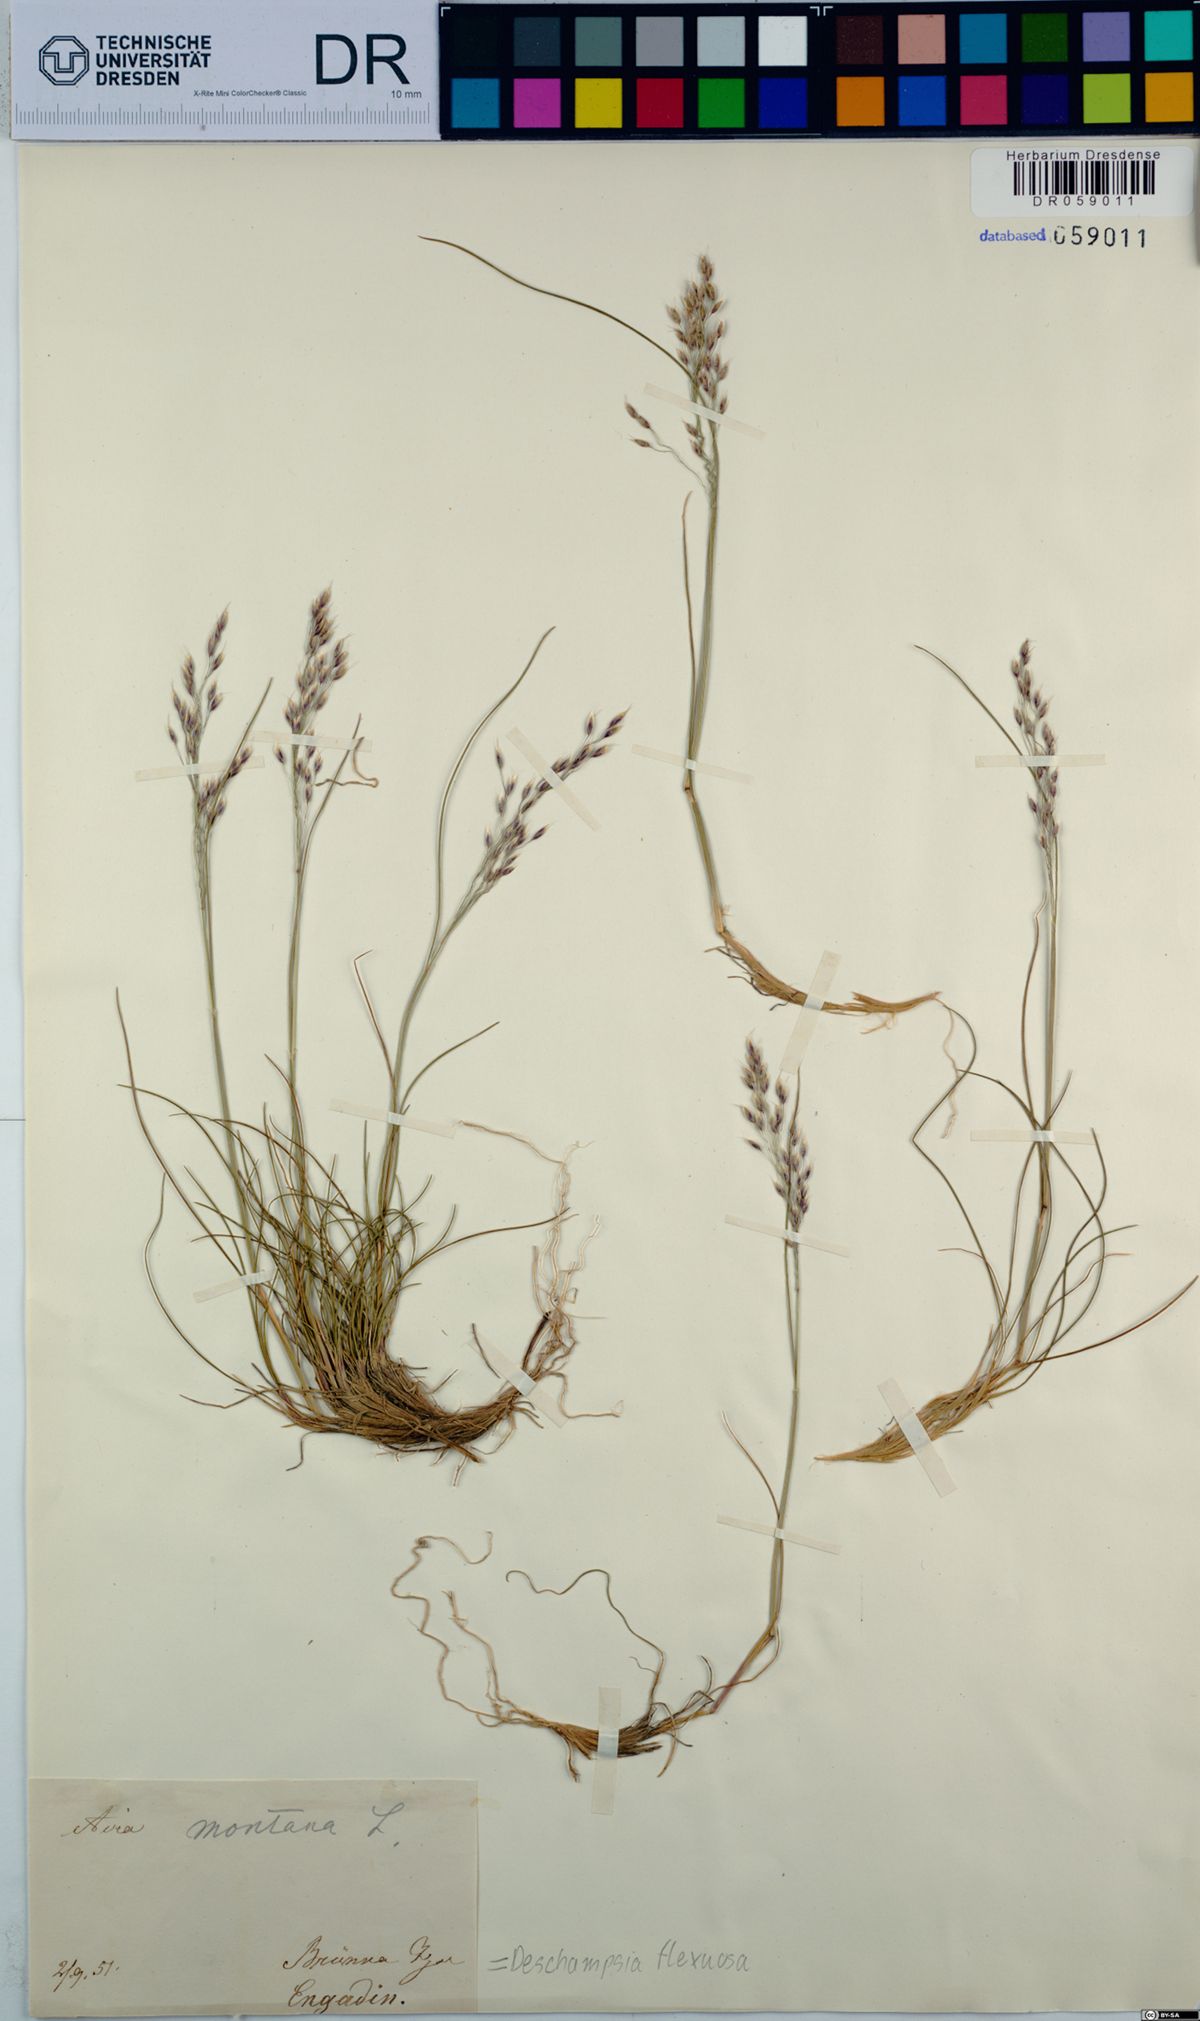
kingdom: Plantae
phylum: Tracheophyta
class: Liliopsida
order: Poales
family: Poaceae
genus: Avenella
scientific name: Avenella flexuosa
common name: Wavy hairgrass
